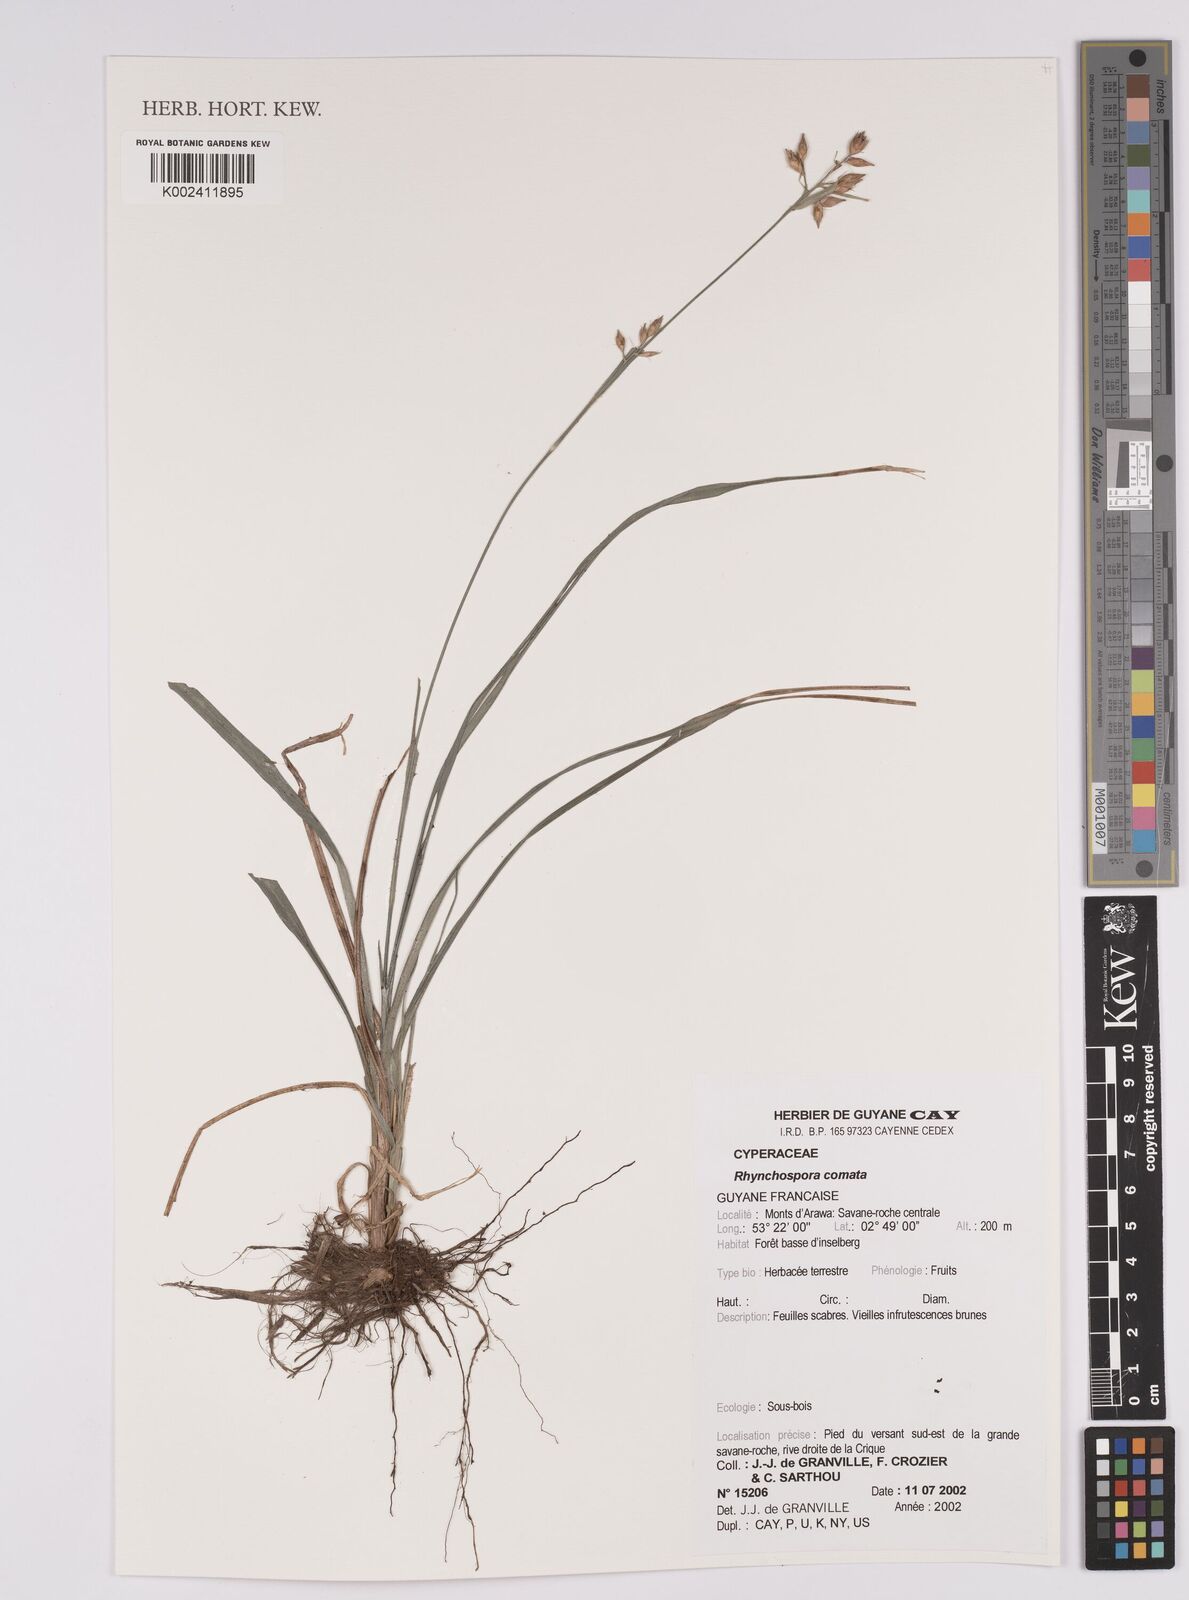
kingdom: Plantae
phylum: Tracheophyta
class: Liliopsida
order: Poales
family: Cyperaceae
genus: Rhynchospora
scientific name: Rhynchospora comata
